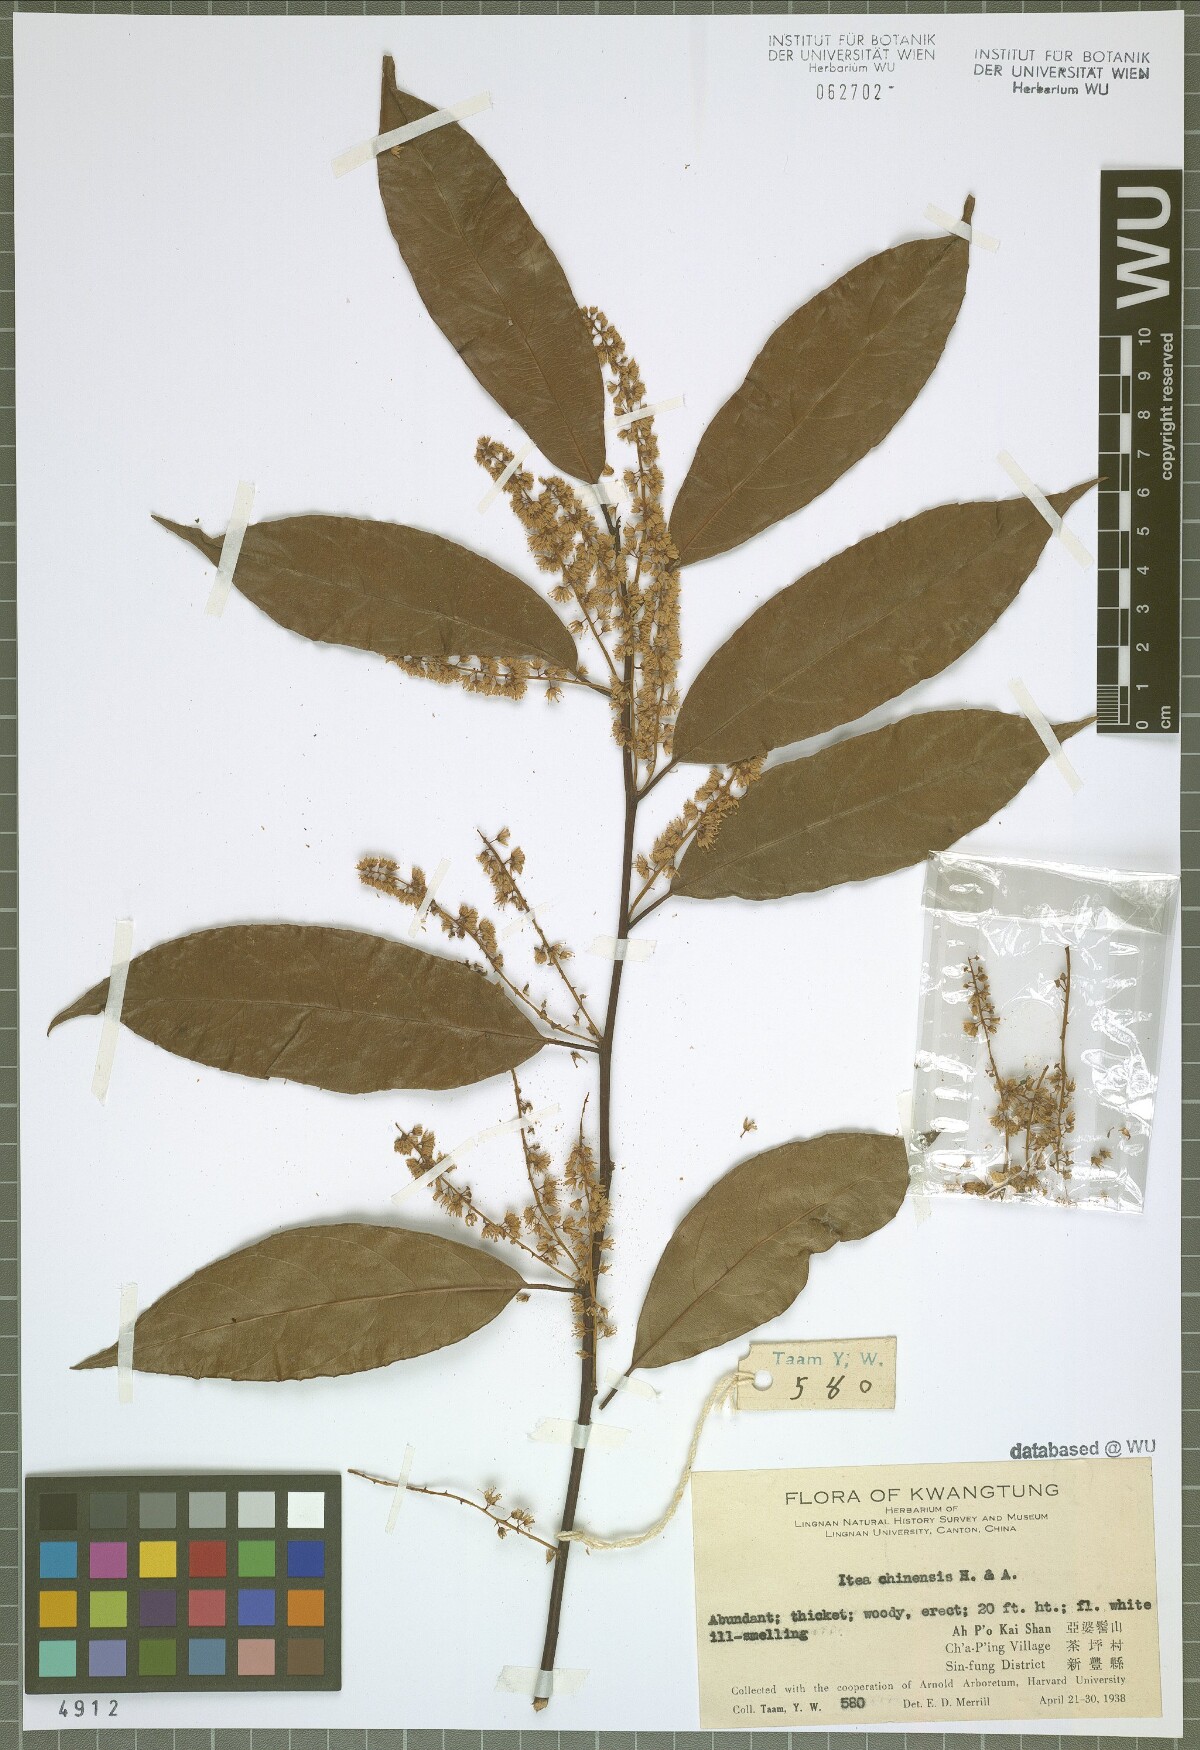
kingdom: Plantae
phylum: Tracheophyta
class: Magnoliopsida
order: Saxifragales
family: Iteaceae
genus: Itea
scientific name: Itea chinensis
